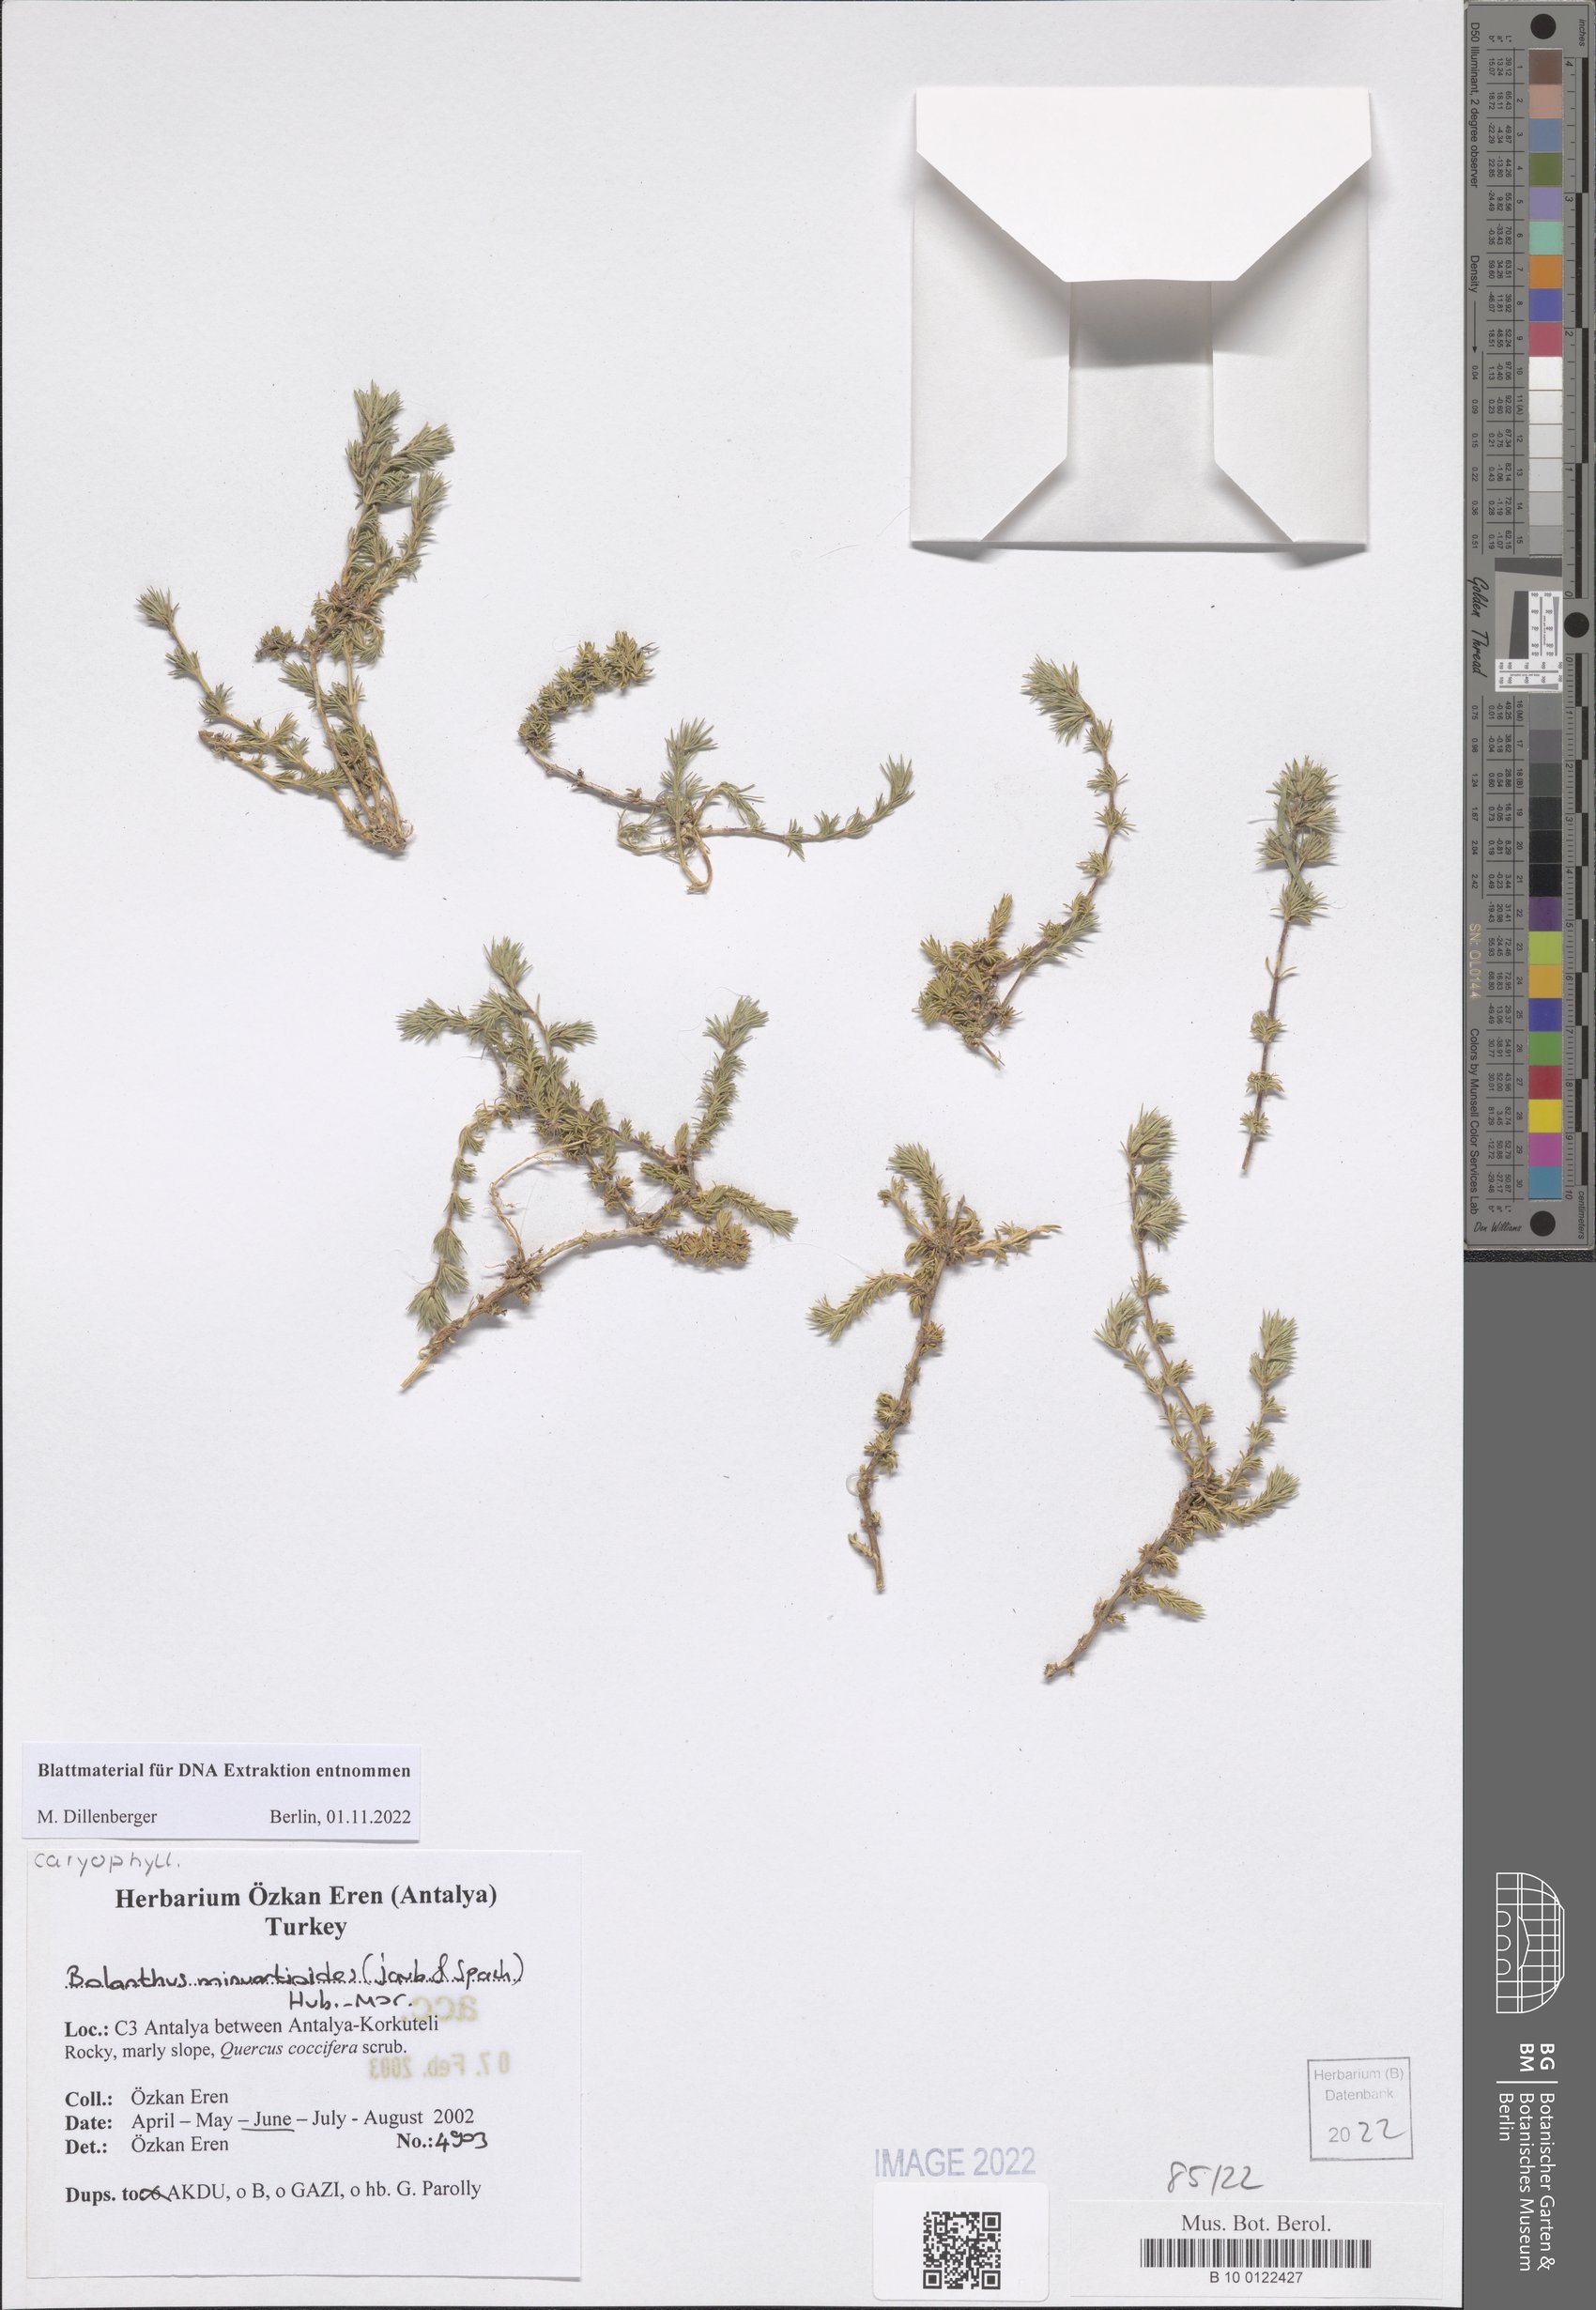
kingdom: Plantae
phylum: Tracheophyta
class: Magnoliopsida
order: Caryophyllales
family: Caryophyllaceae
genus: Bolanthus
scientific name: Bolanthus minuartioides
